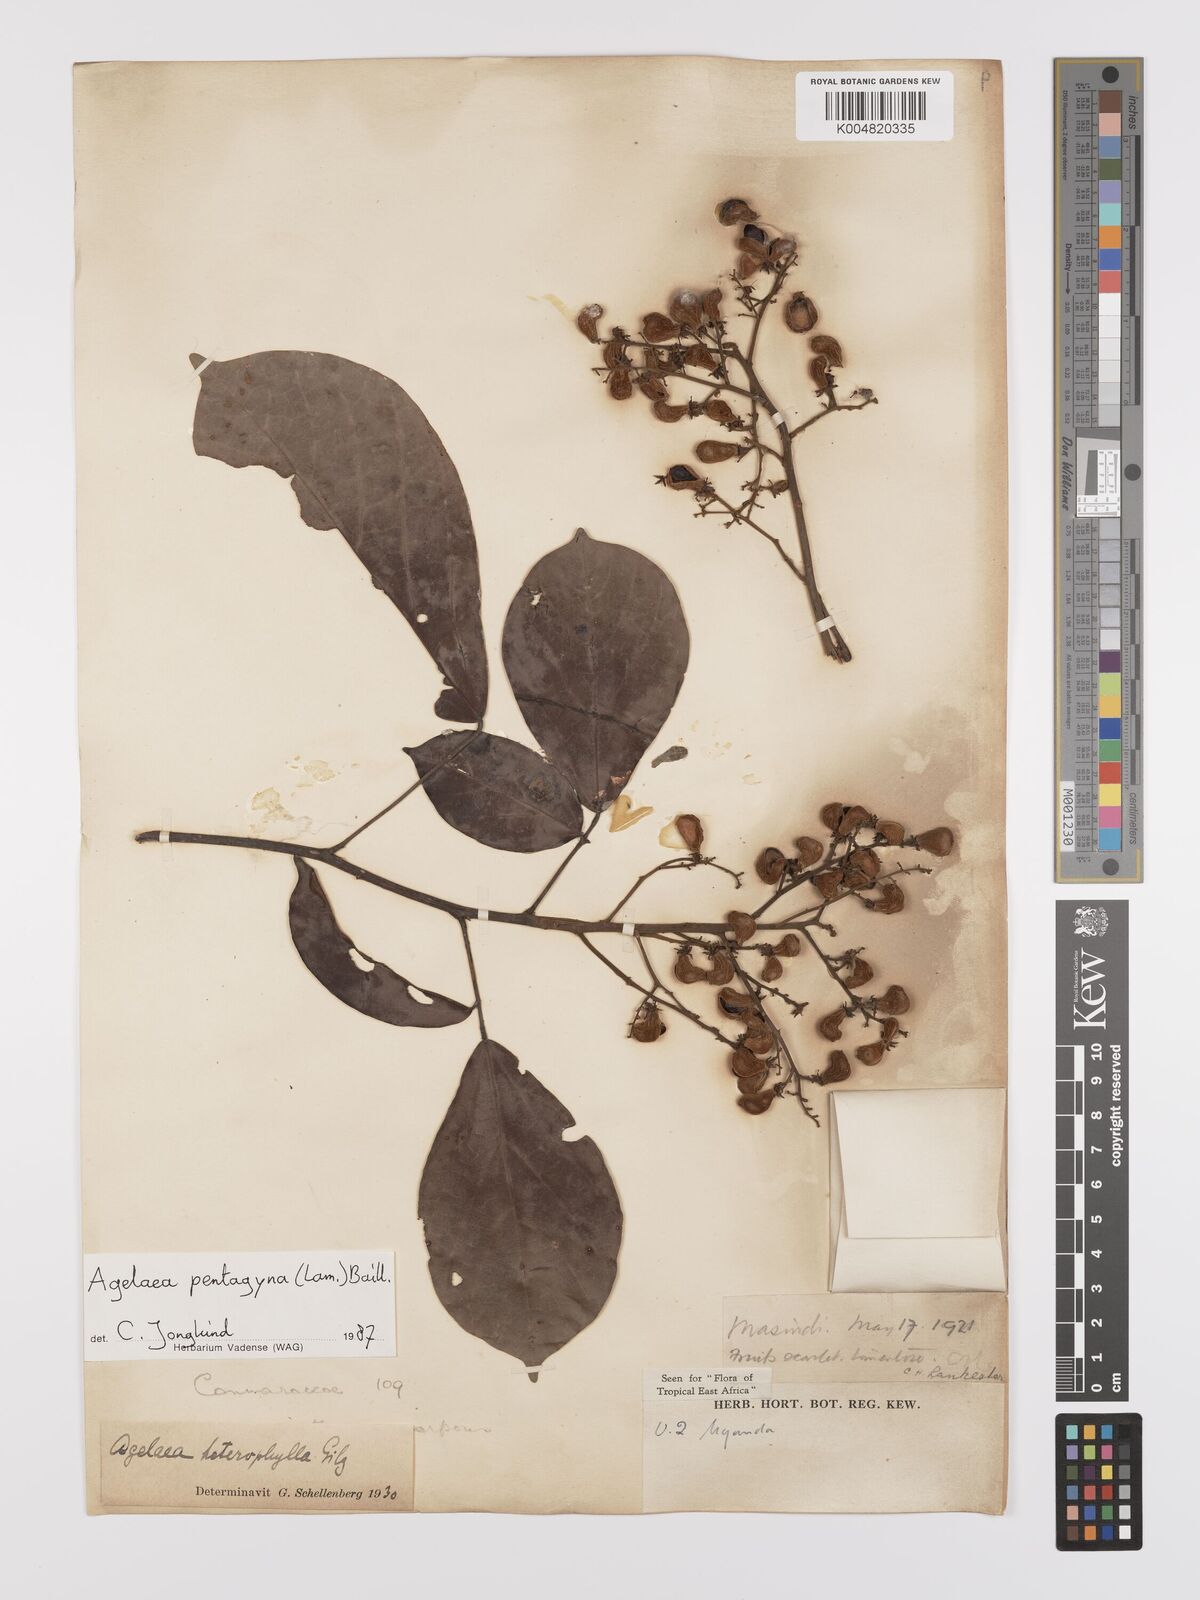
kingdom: Plantae
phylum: Tracheophyta
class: Magnoliopsida
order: Oxalidales
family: Connaraceae
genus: Agelaea
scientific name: Agelaea pentagyna
